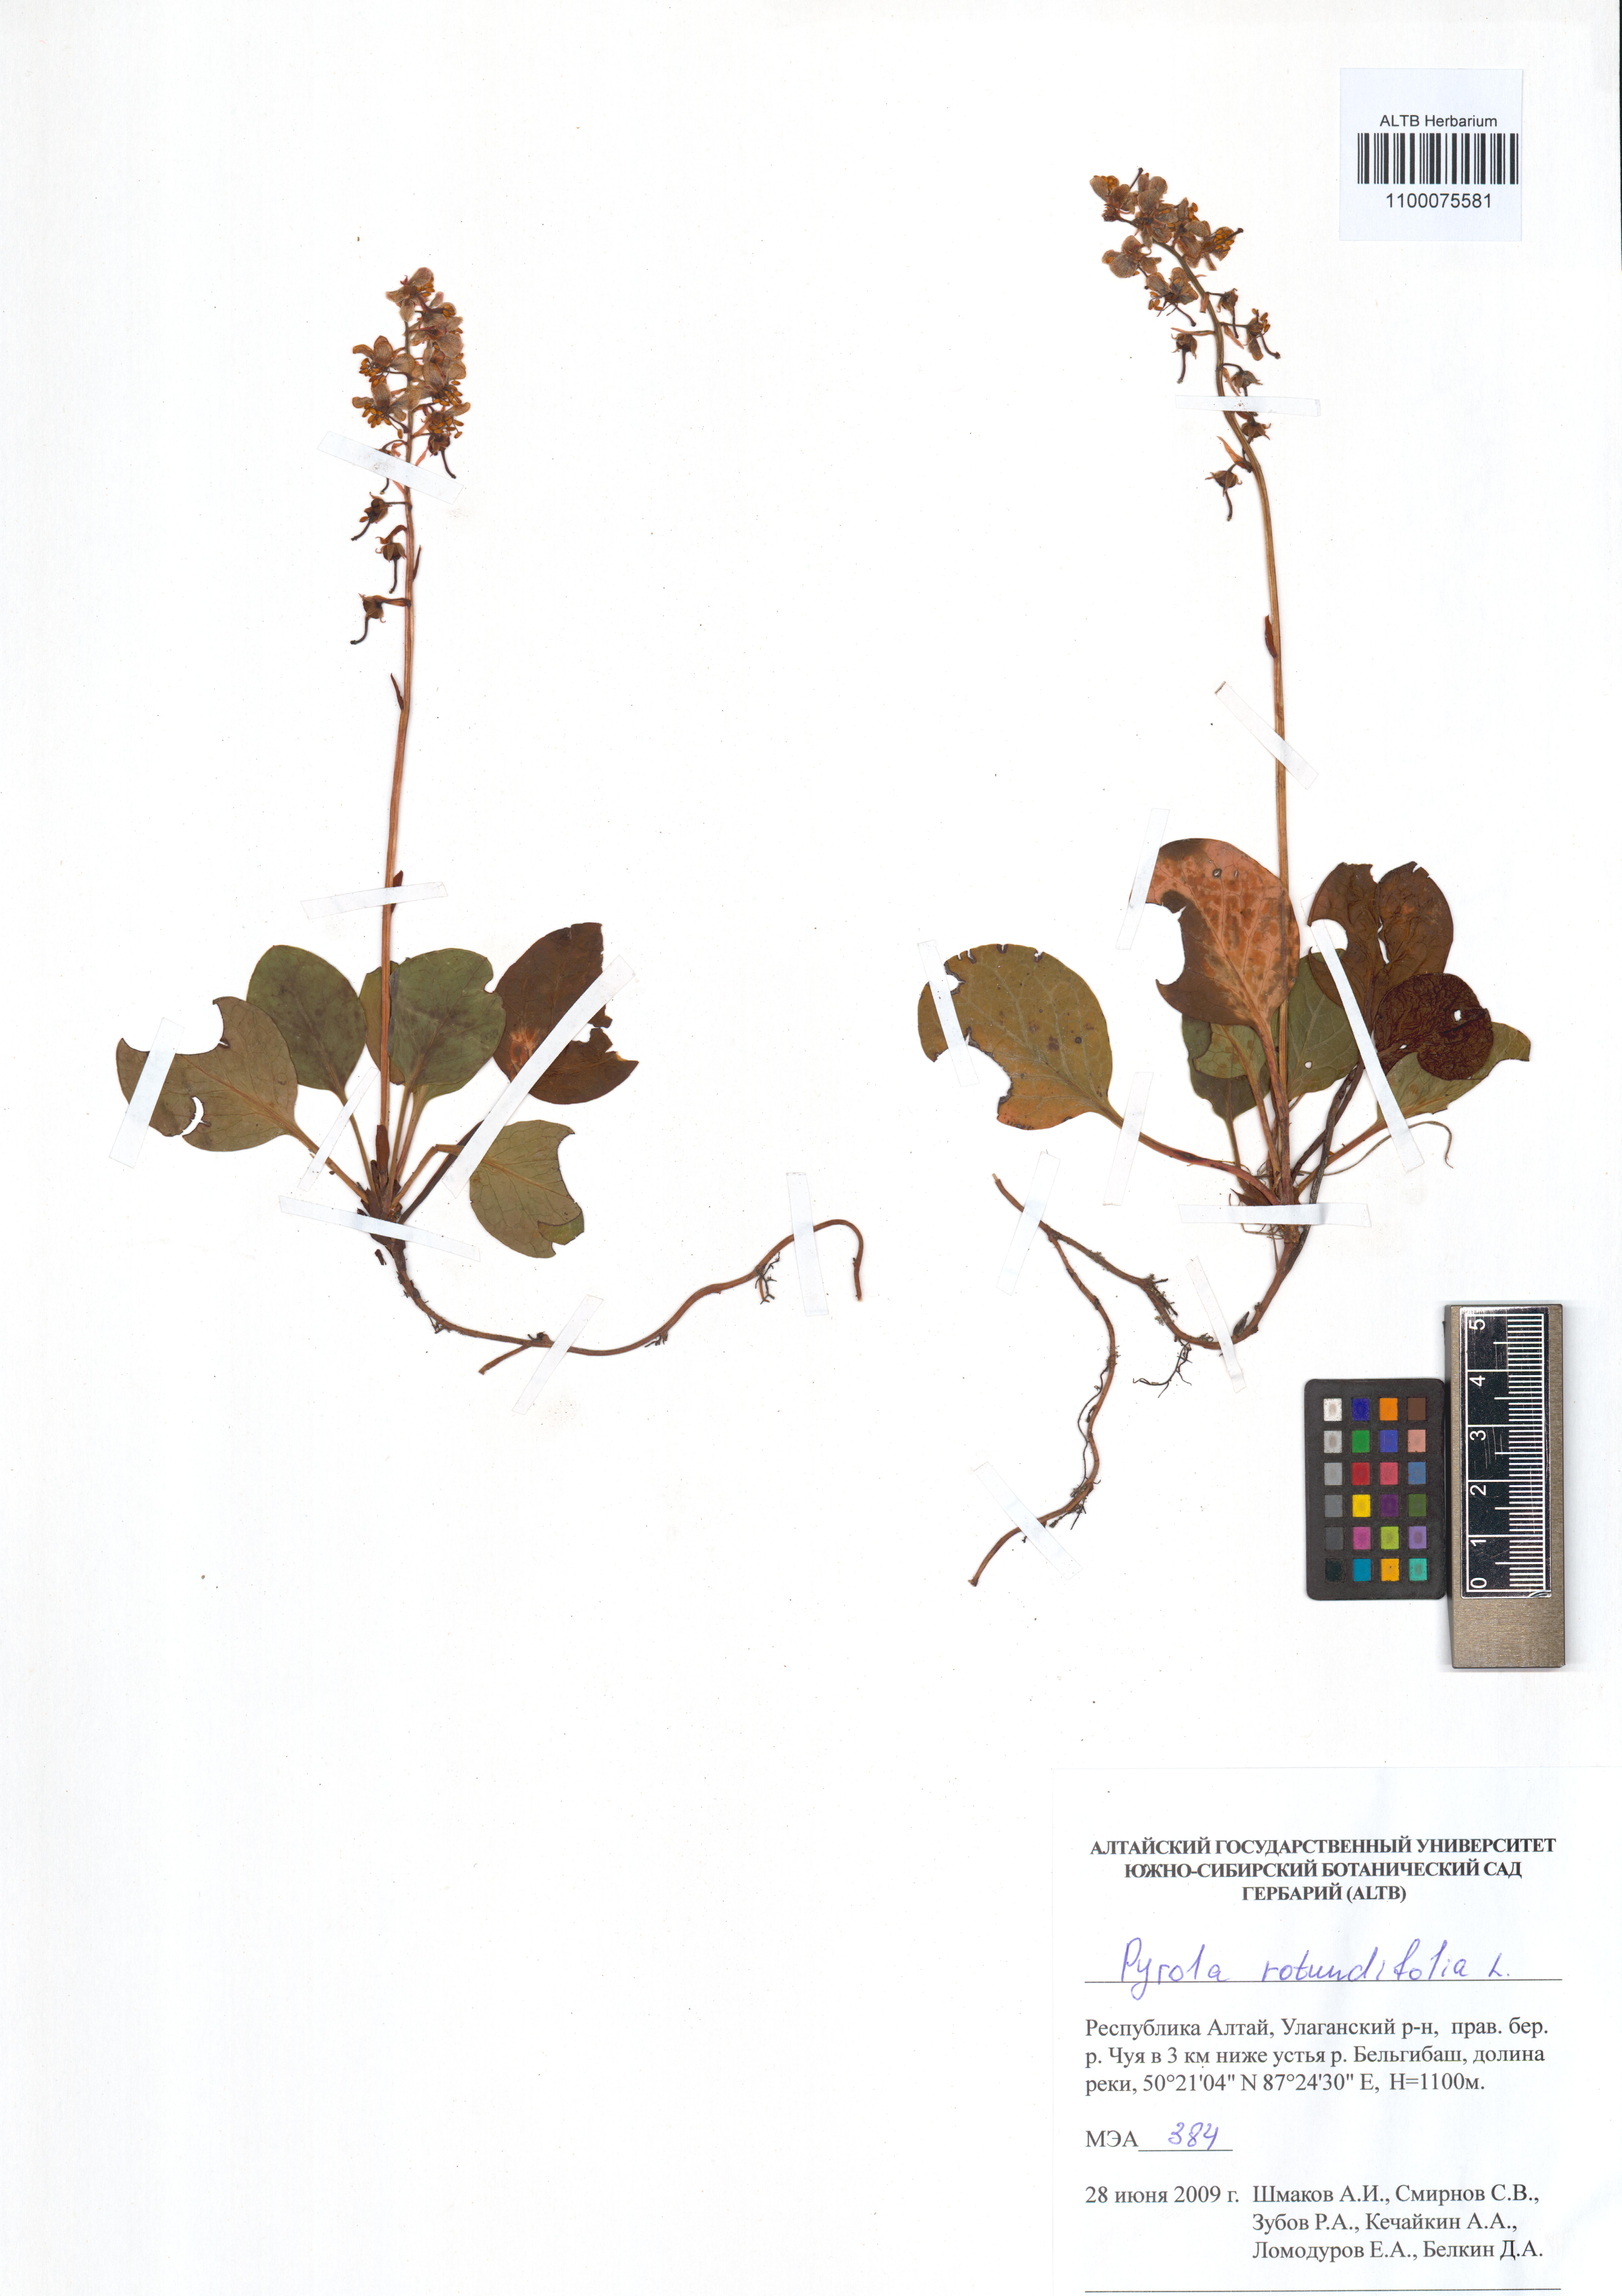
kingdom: Plantae
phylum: Tracheophyta
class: Magnoliopsida
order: Ericales
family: Ericaceae
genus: Pyrola
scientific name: Pyrola rotundifolia
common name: Round-leaved wintergreen
